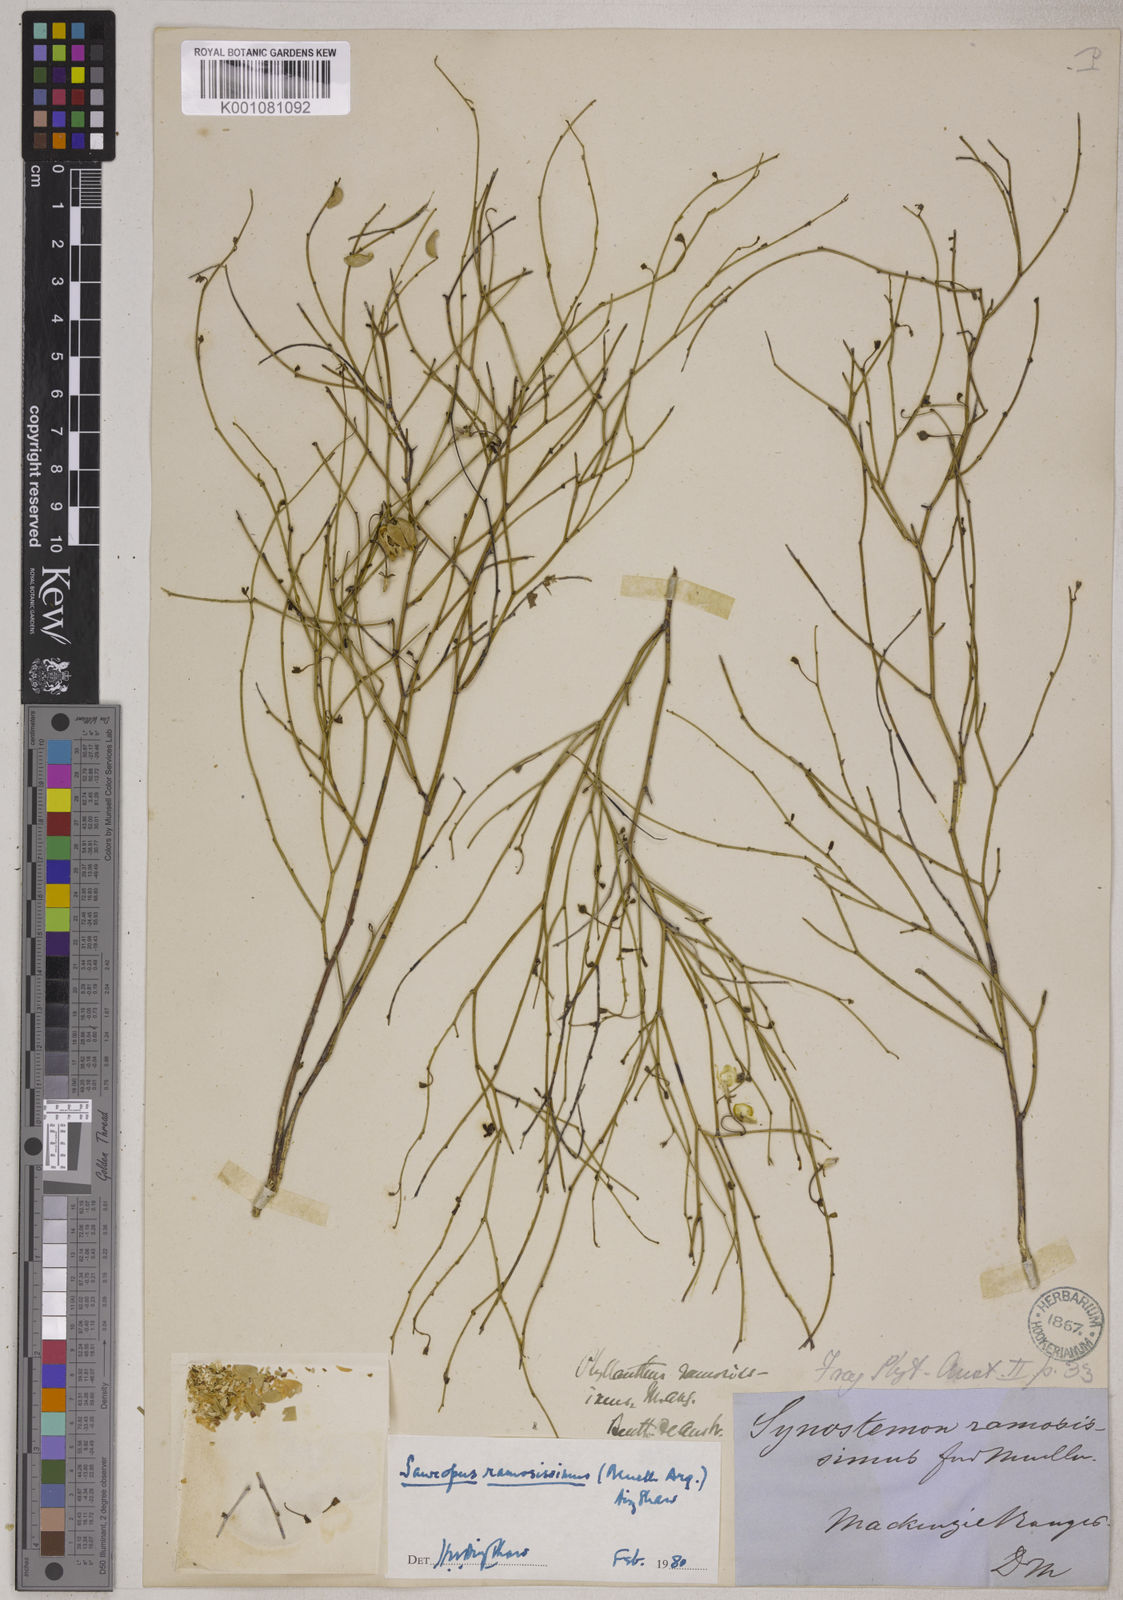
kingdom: Plantae
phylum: Tracheophyta
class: Magnoliopsida
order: Malpighiales
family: Phyllanthaceae
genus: Synostemon
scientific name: Synostemon ramosissimus
